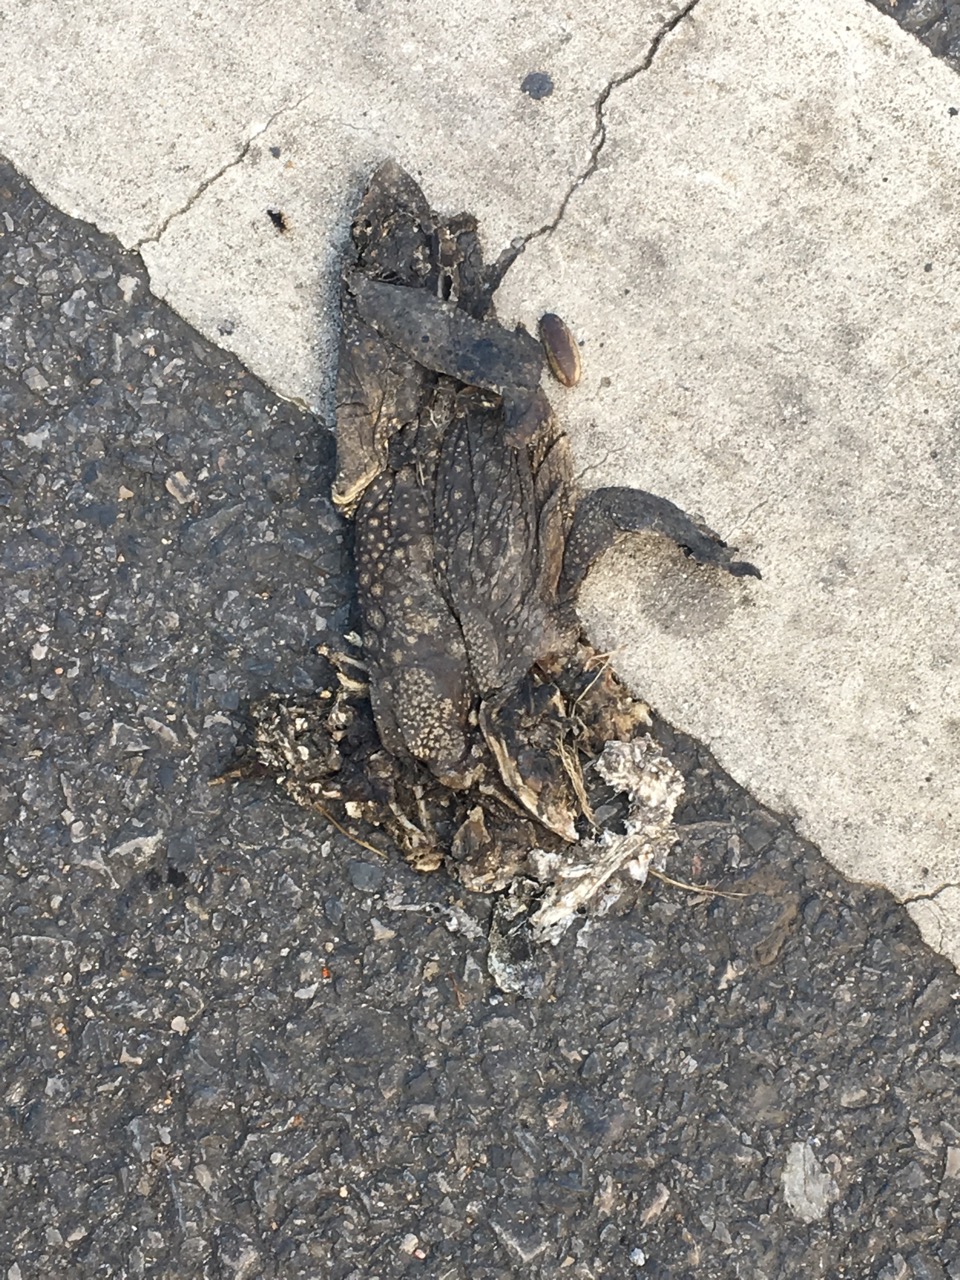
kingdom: Animalia
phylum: Chordata
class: Amphibia
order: Anura
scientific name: Anura
